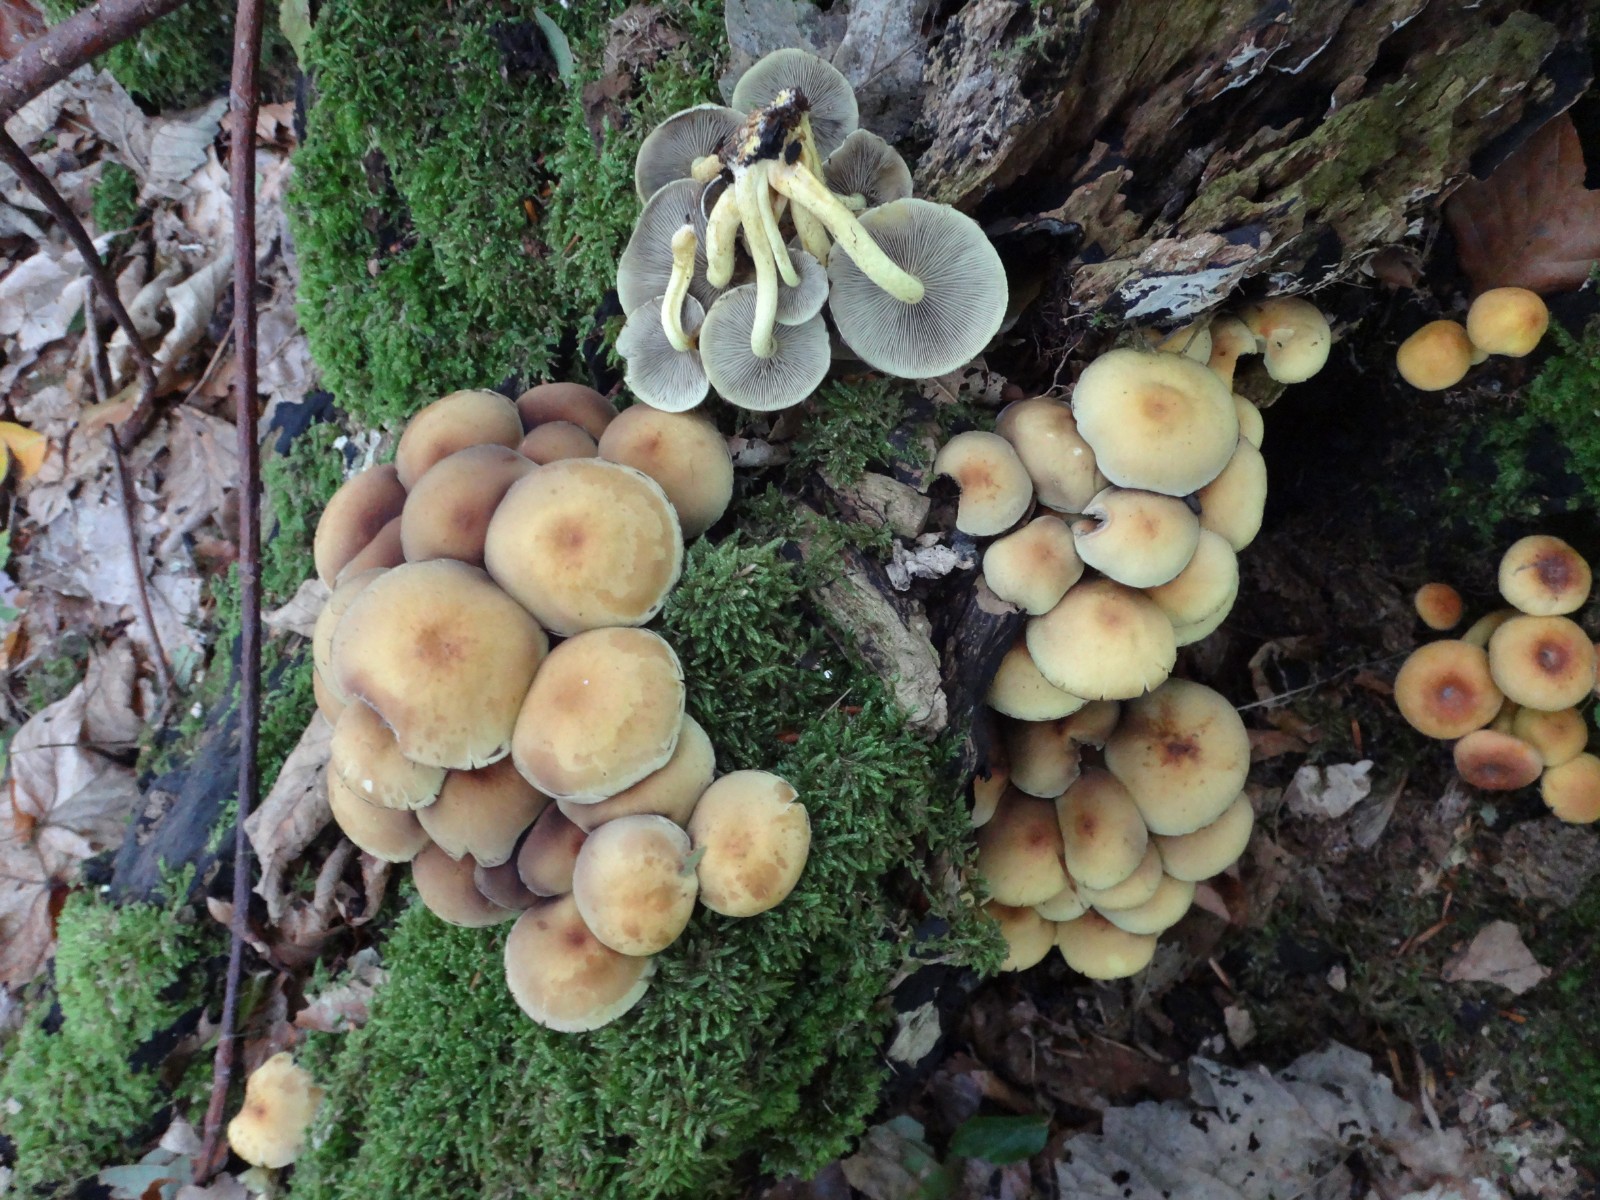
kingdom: Fungi
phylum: Basidiomycota
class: Agaricomycetes
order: Agaricales
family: Strophariaceae
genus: Hypholoma
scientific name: Hypholoma fasciculare
